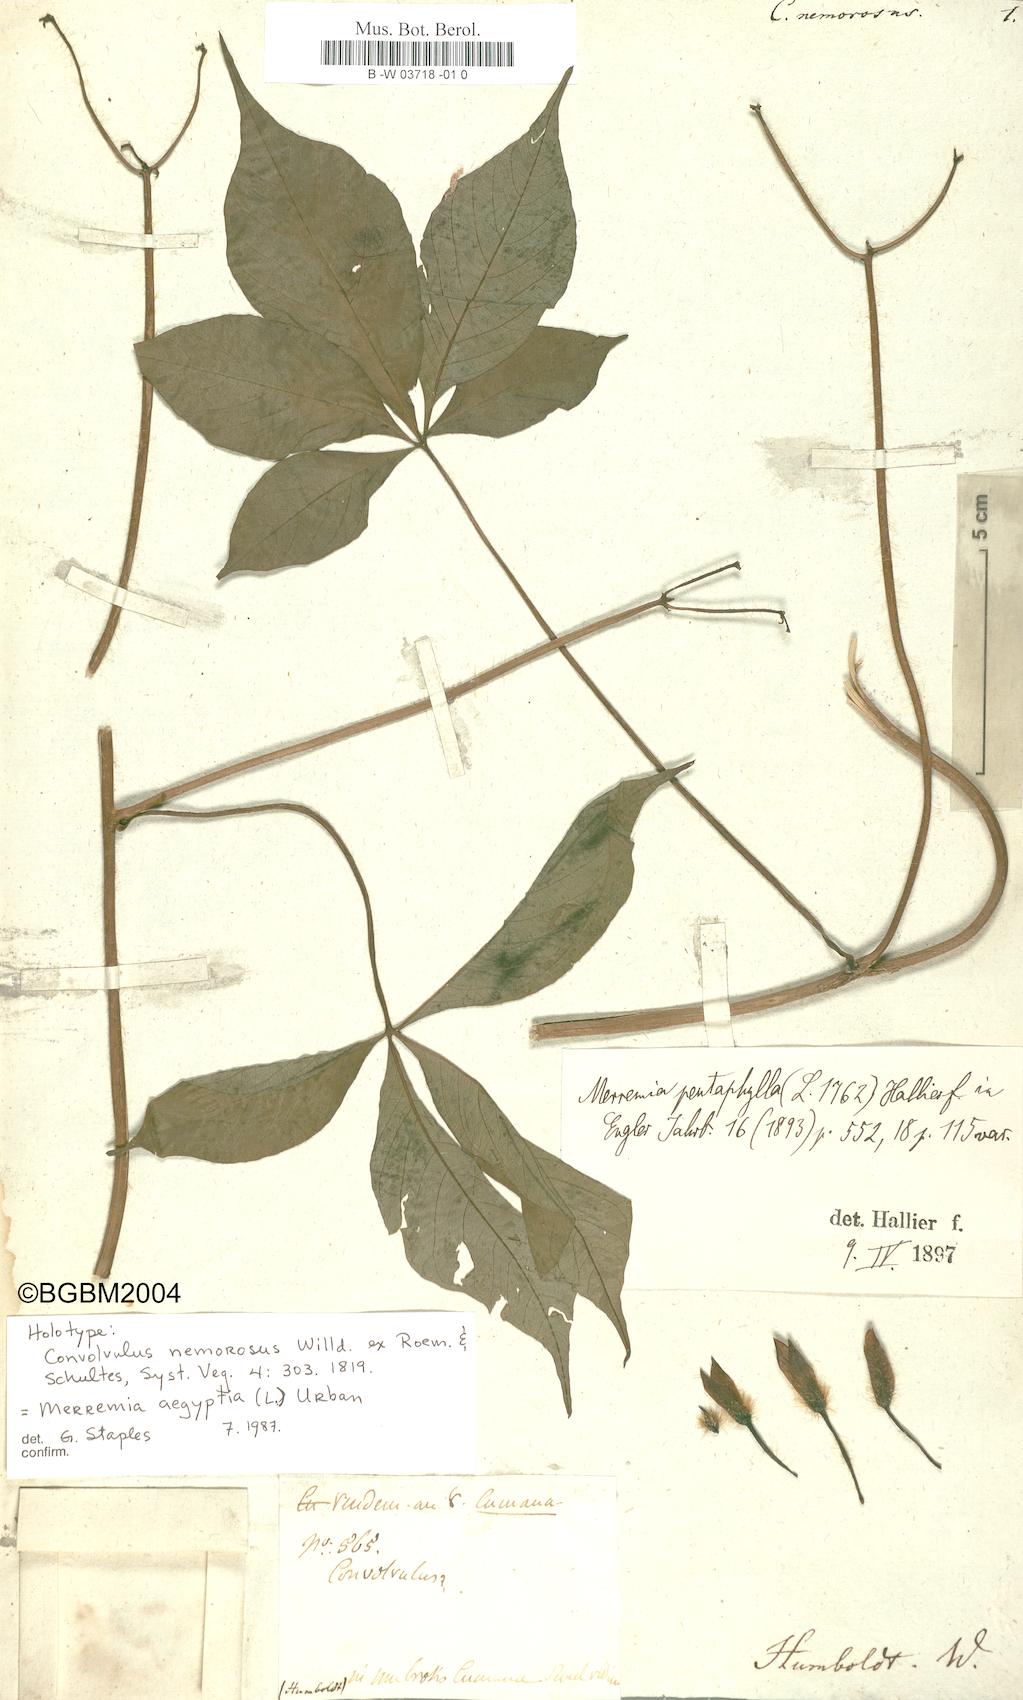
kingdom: Plantae
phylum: Tracheophyta
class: Magnoliopsida
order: Solanales
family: Convolvulaceae
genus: Distimake
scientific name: Distimake aegyptius
